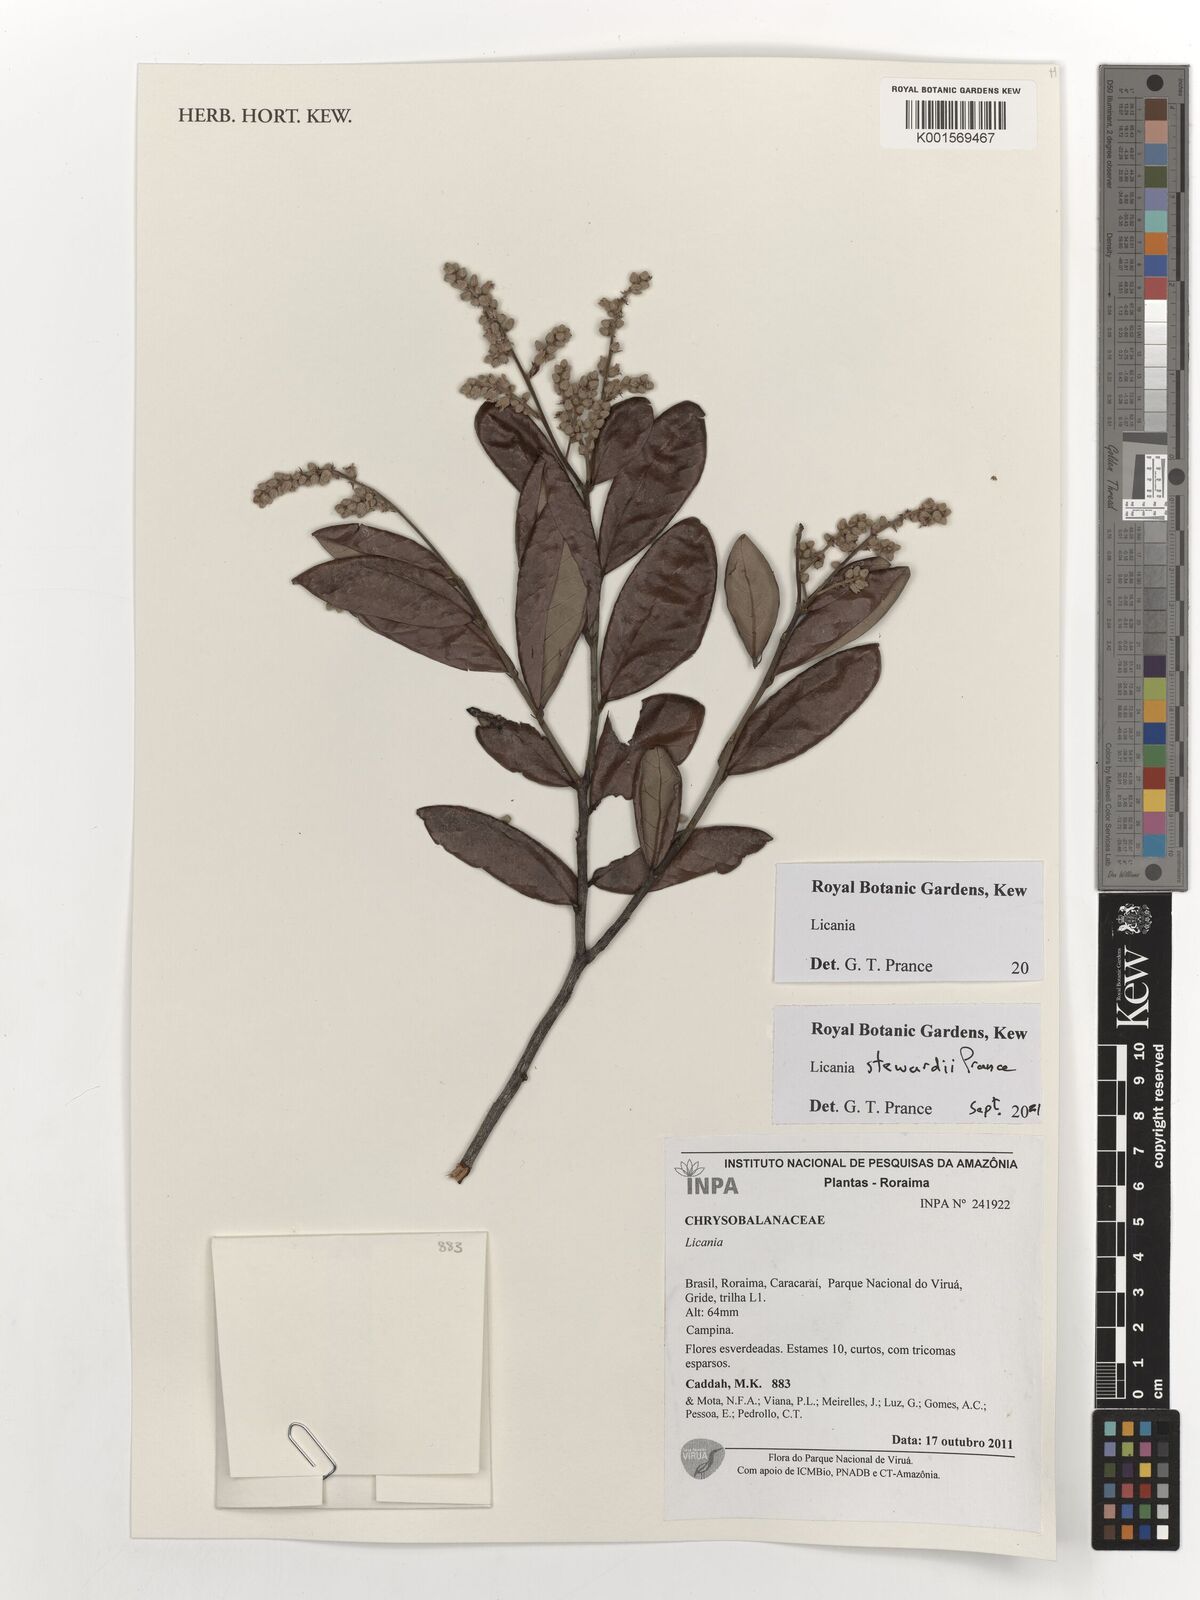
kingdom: Plantae
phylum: Tracheophyta
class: Magnoliopsida
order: Malpighiales
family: Chrysobalanaceae
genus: Licania
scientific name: Licania stewardii
